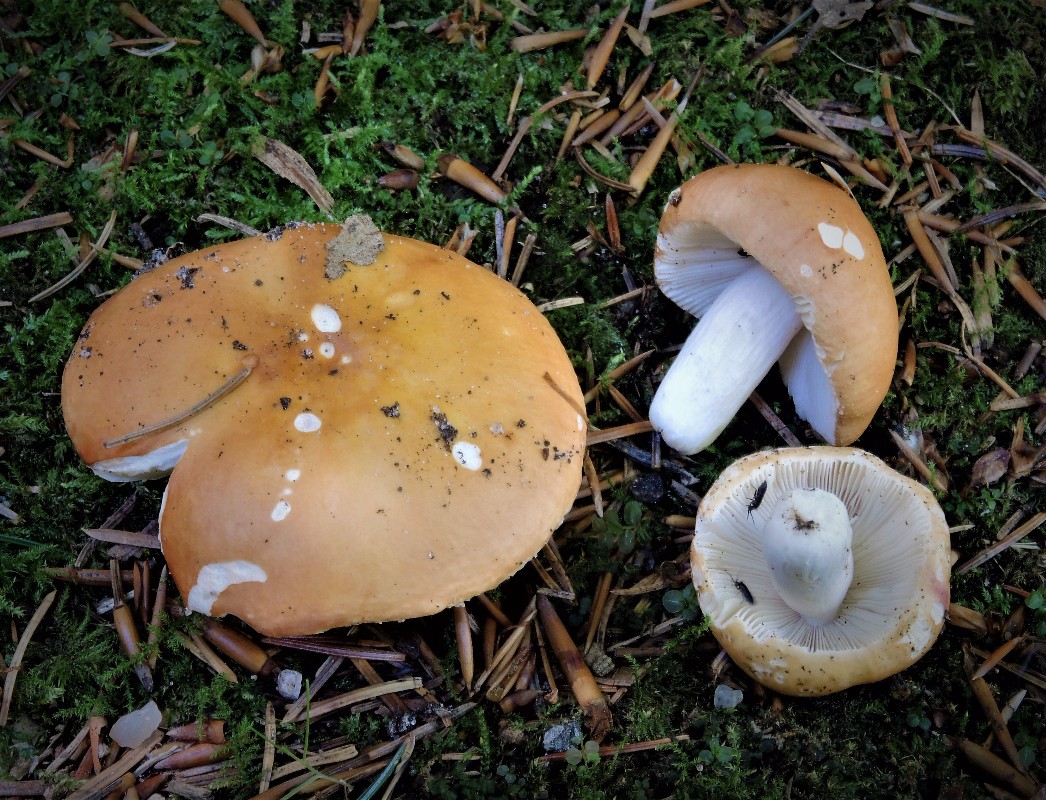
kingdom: Fungi
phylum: Basidiomycota
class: Agaricomycetes
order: Russulales
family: Russulaceae
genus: Russula
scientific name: Russula decolorans
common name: afblegende skørhat
